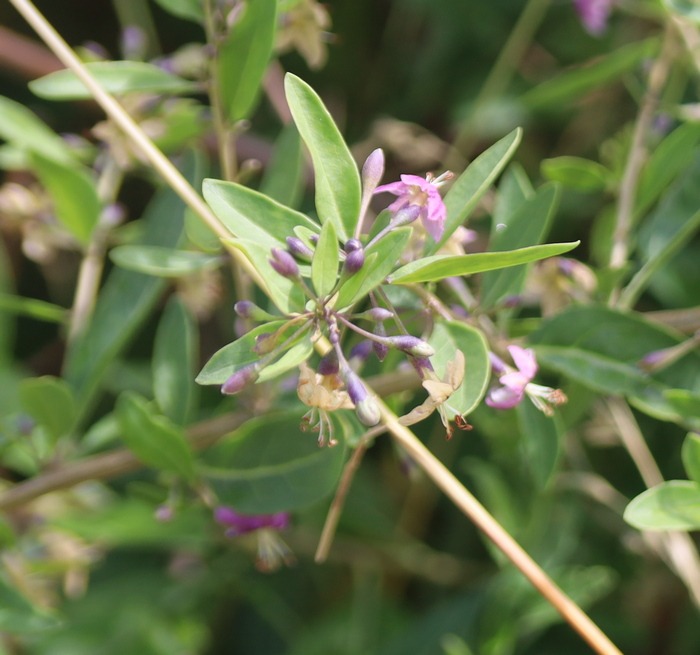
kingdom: Plantae
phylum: Tracheophyta
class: Magnoliopsida
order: Solanales
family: Solanaceae
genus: Lycium
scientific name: Lycium barbarum
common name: Bukketorn
